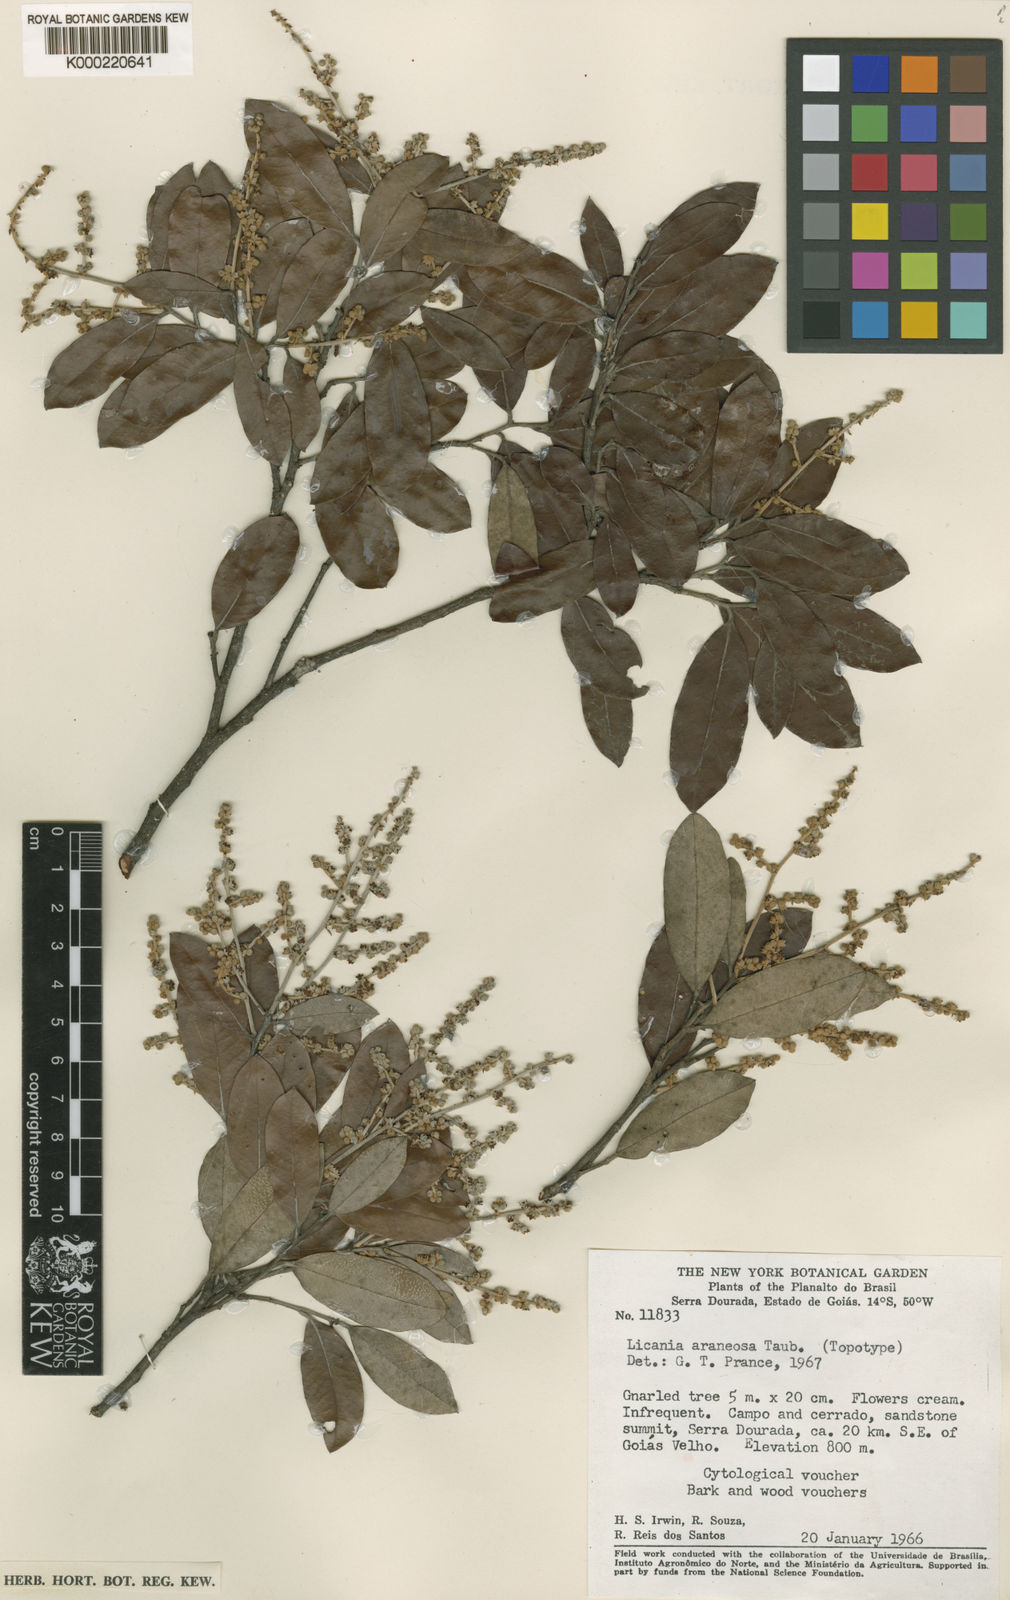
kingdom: Plantae
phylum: Tracheophyta
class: Magnoliopsida
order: Malpighiales
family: Chrysobalanaceae
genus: Moquilea
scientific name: Moquilea araneosa
